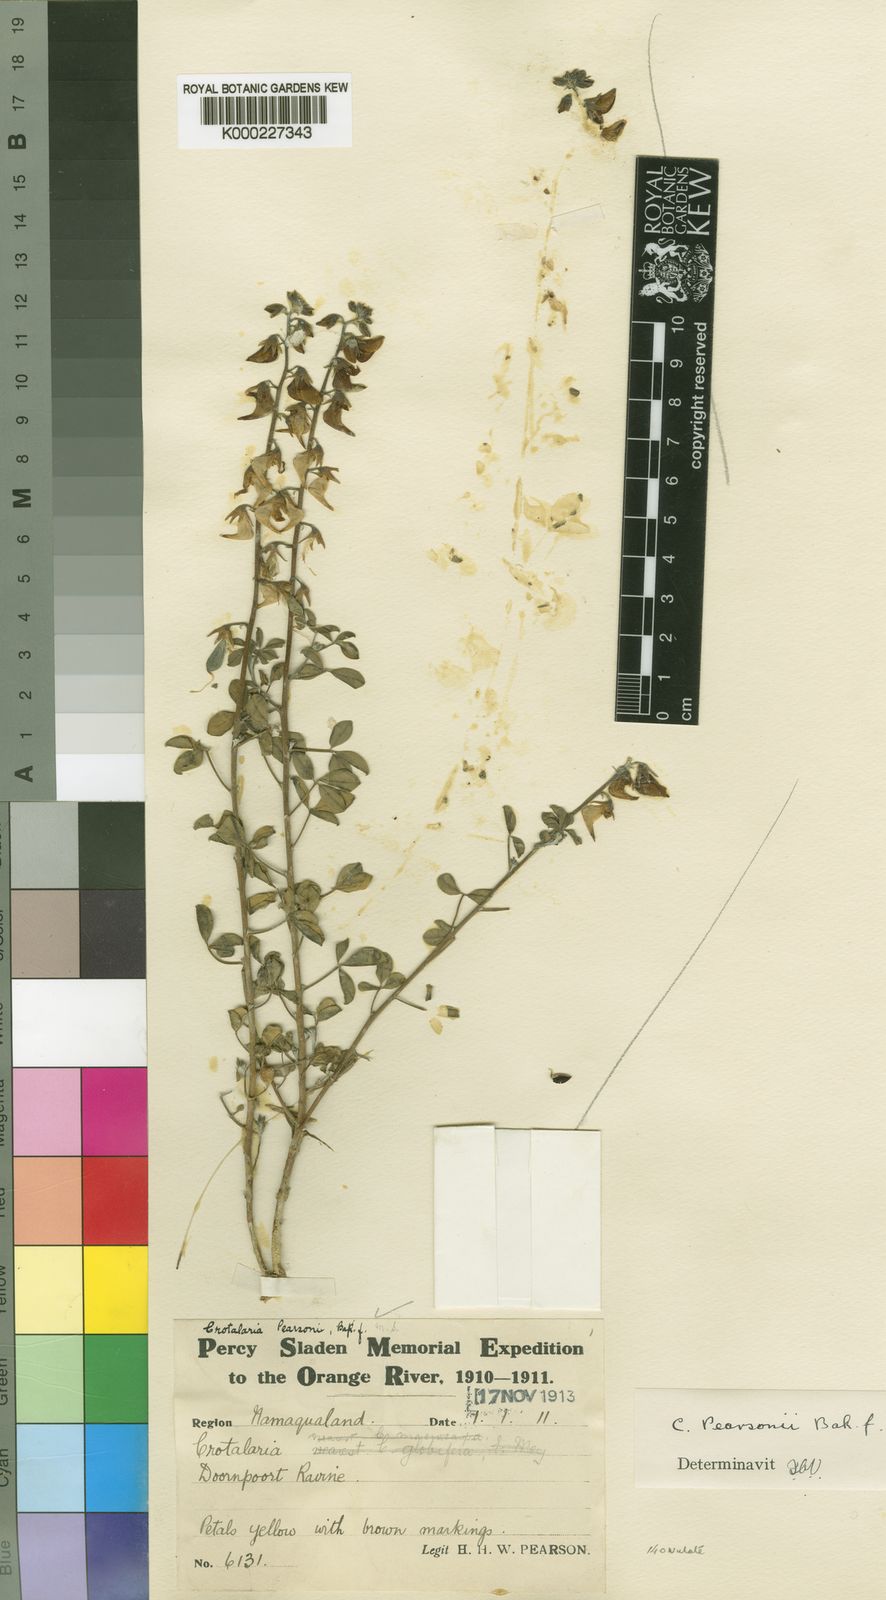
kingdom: Plantae
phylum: Tracheophyta
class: Magnoliopsida
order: Fabales
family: Fabaceae
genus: Crotalaria
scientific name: Crotalaria pearsonii
